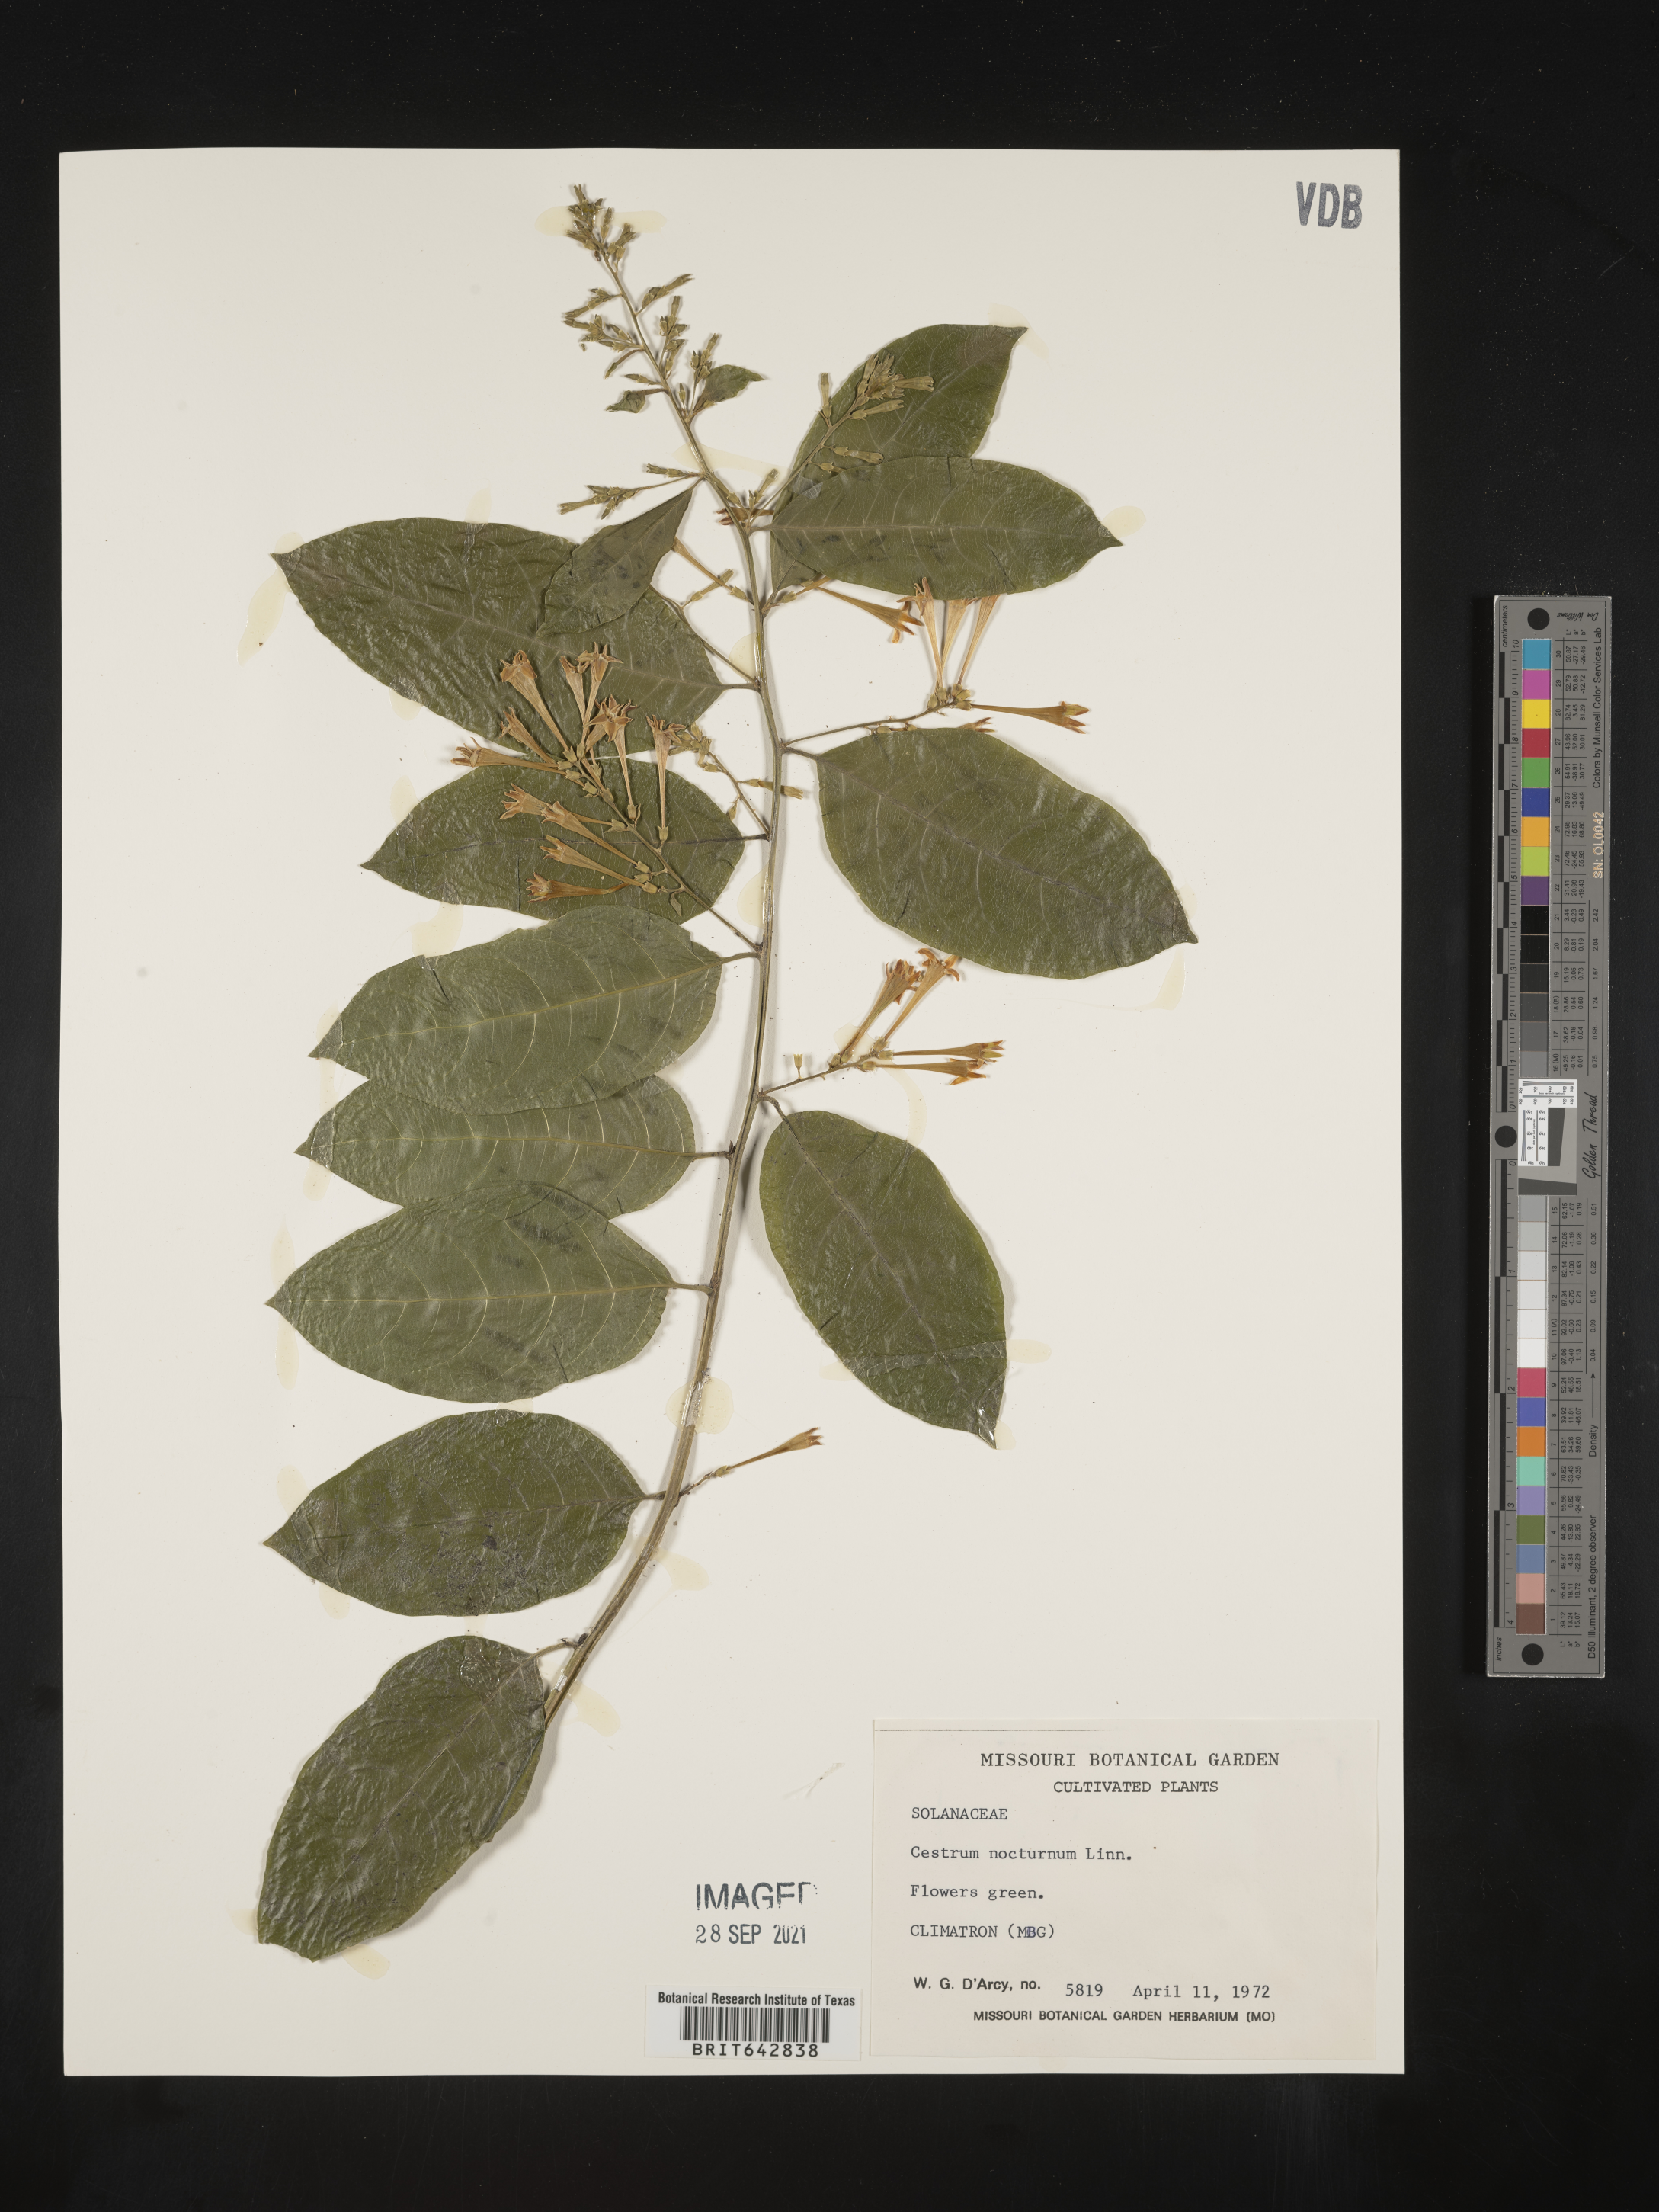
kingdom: Plantae
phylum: Tracheophyta
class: Magnoliopsida
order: Solanales
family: Solanaceae
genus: Cestrum
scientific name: Cestrum
